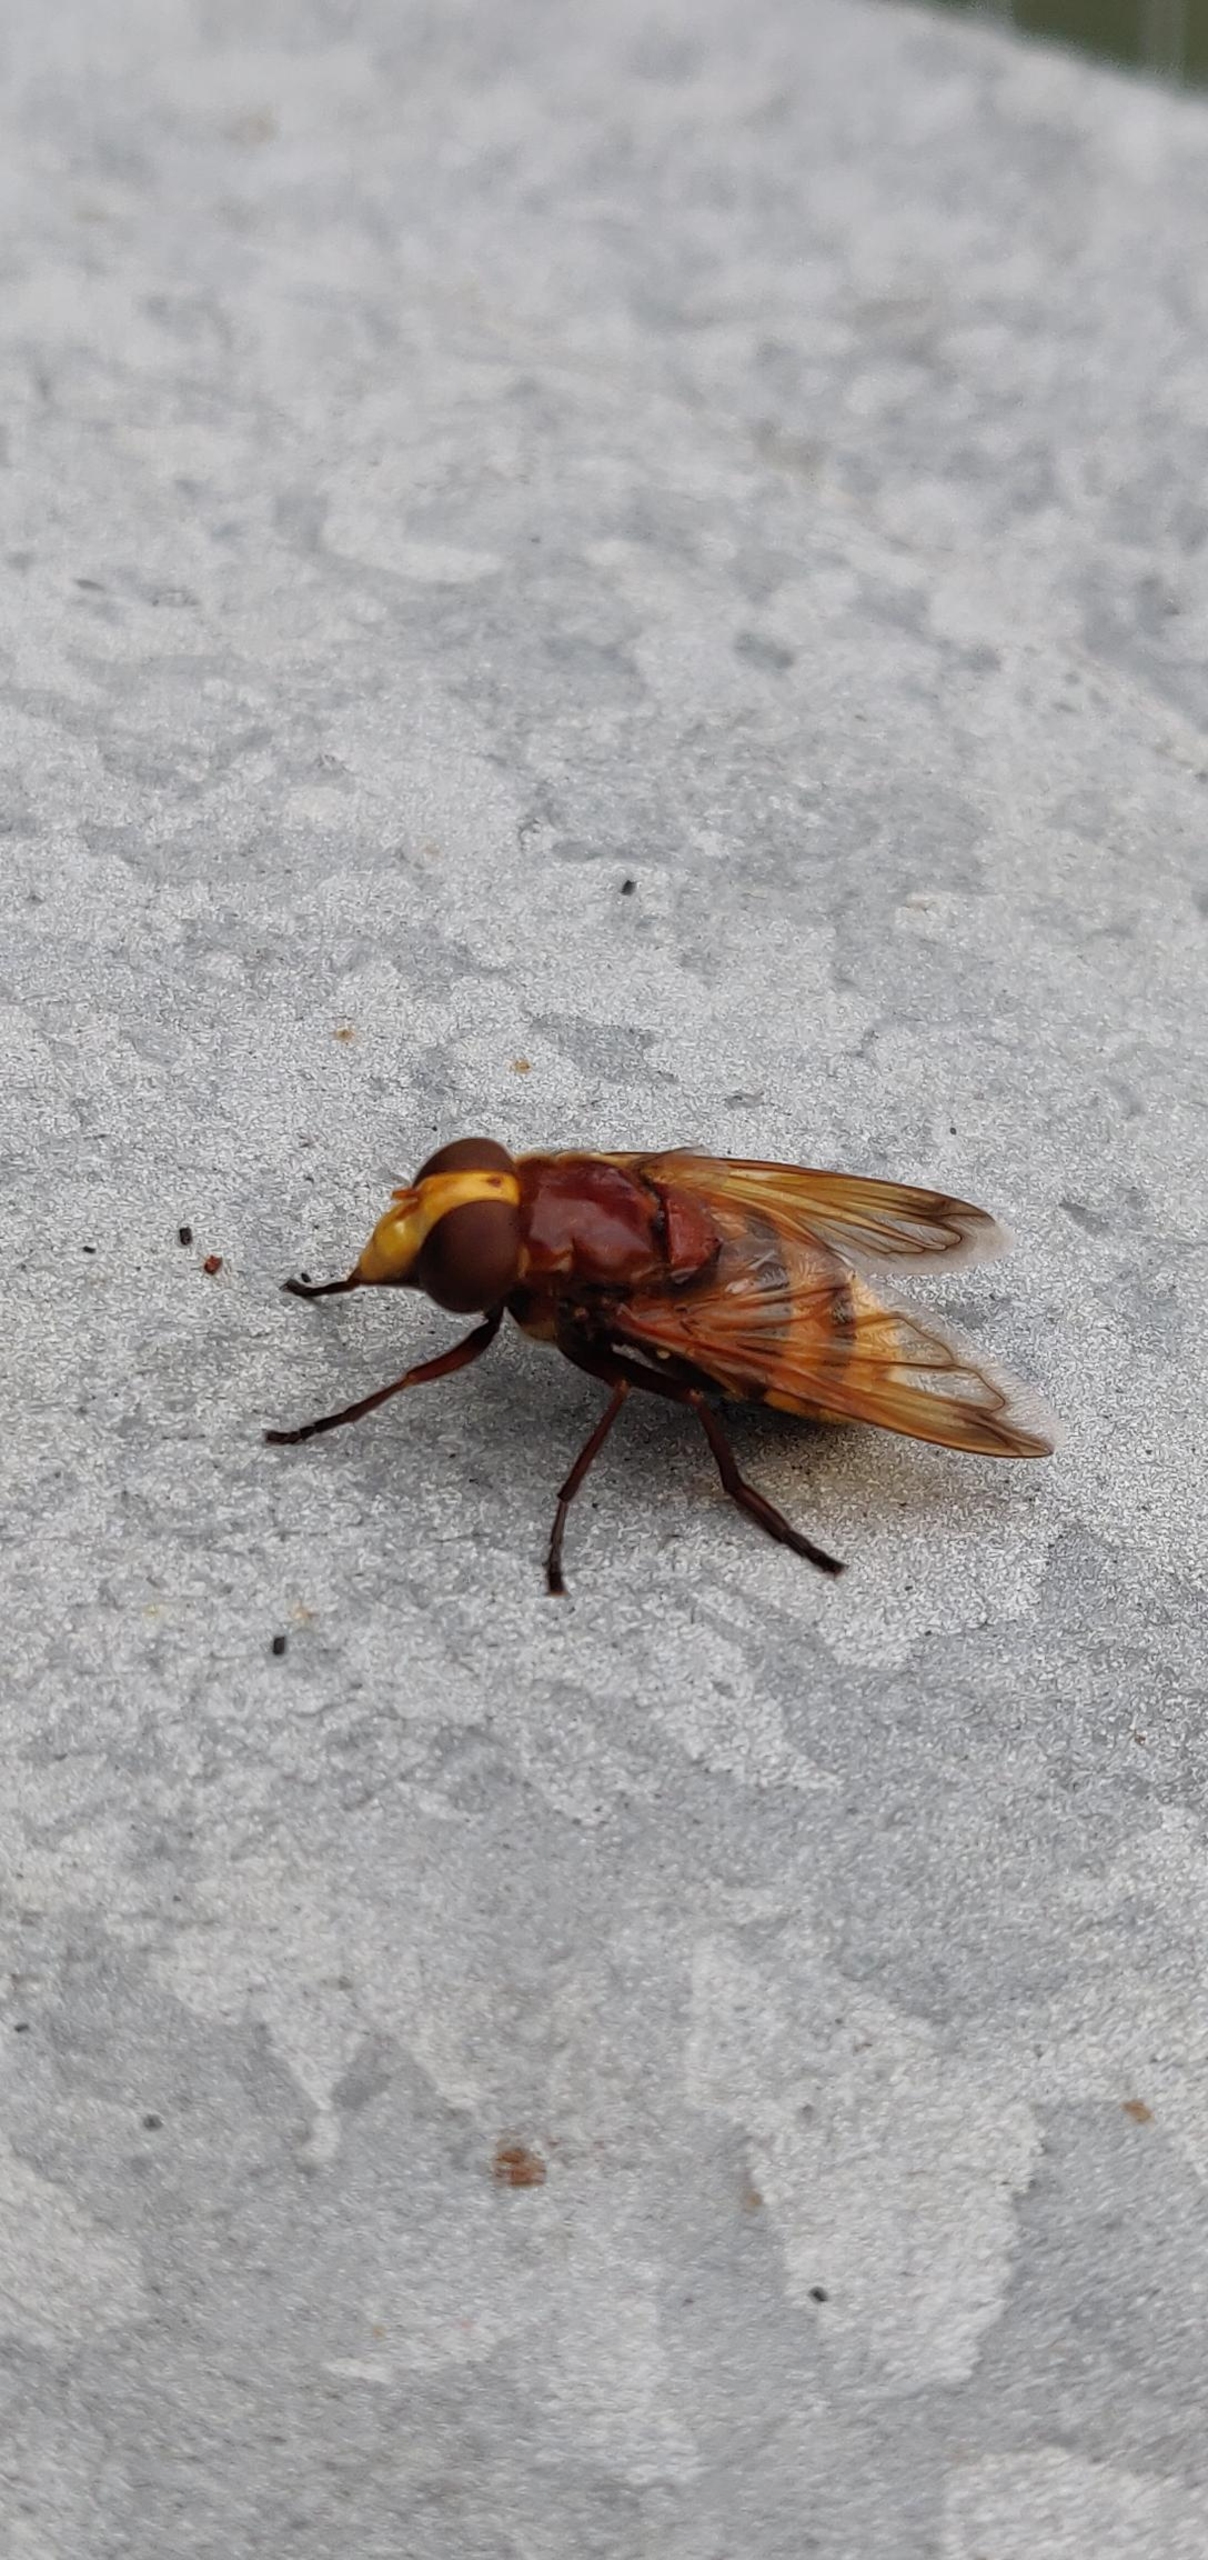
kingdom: Animalia
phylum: Arthropoda
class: Insecta
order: Diptera
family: Syrphidae
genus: Volucella
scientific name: Volucella zonaria
